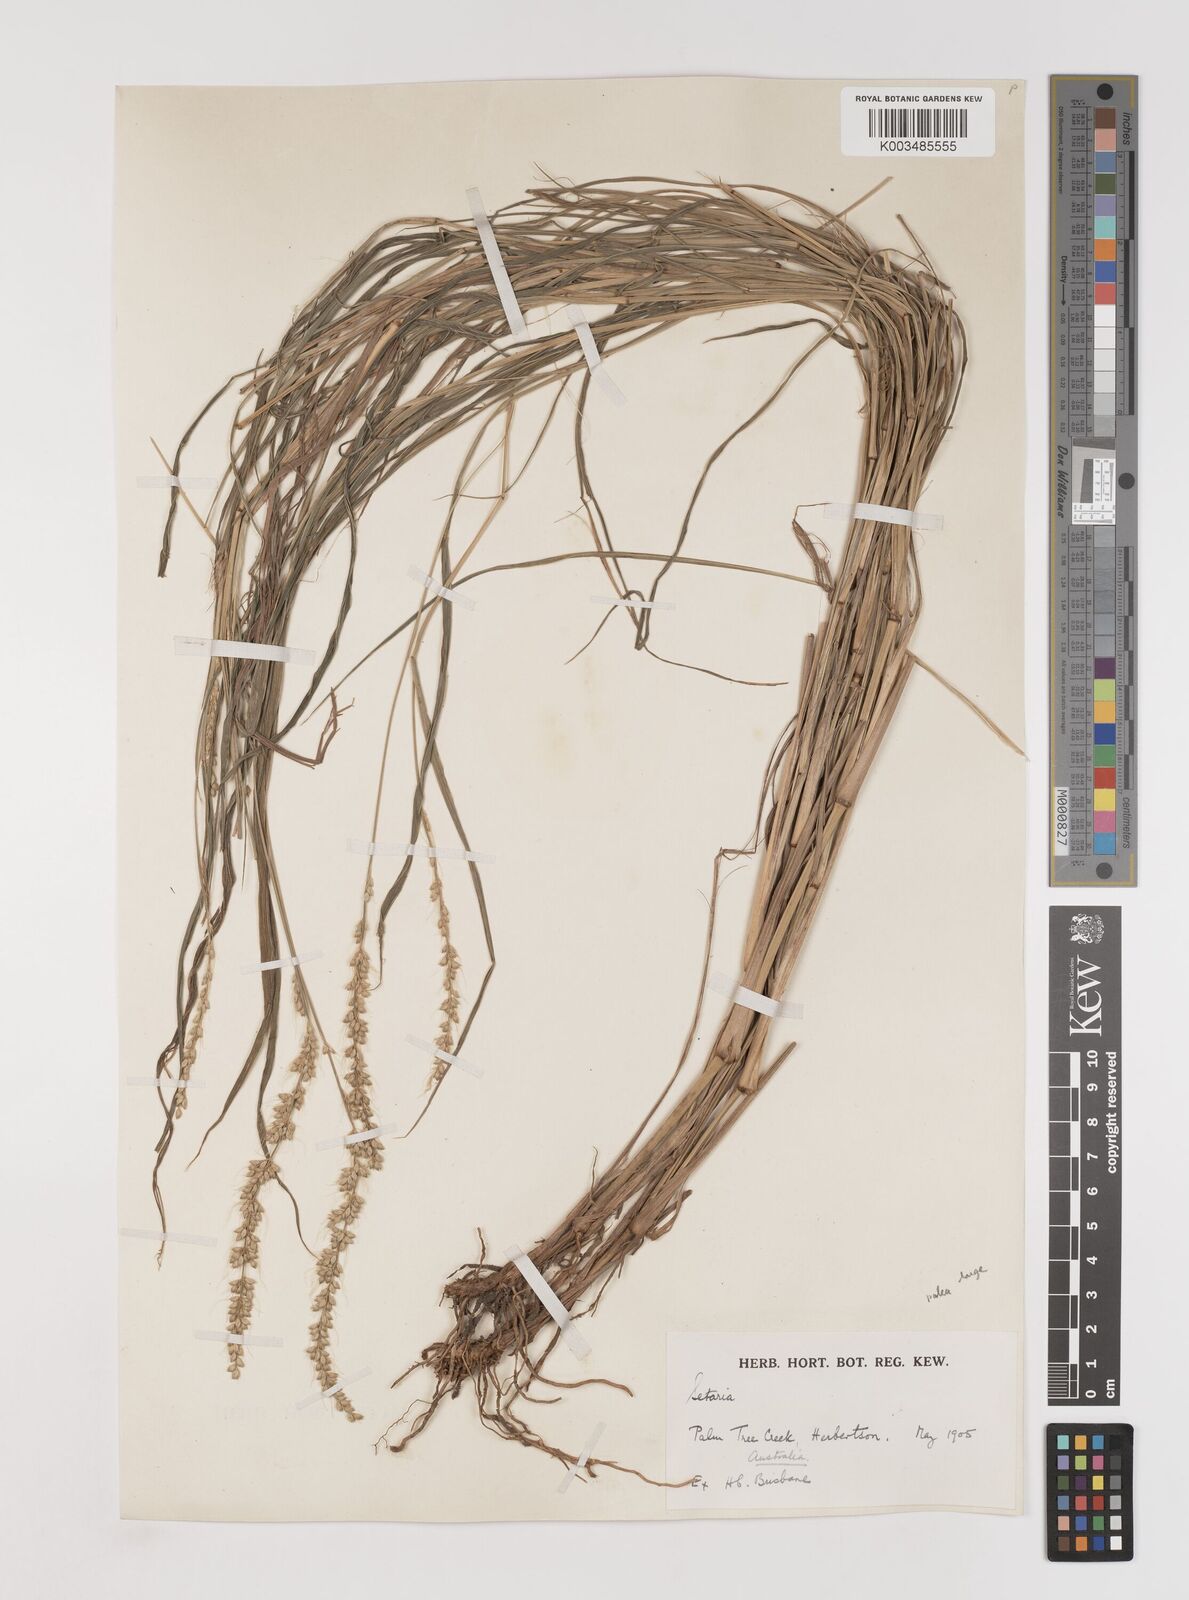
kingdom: Plantae
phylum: Tracheophyta
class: Liliopsida
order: Poales
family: Poaceae
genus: Setaria
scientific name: Setaria
